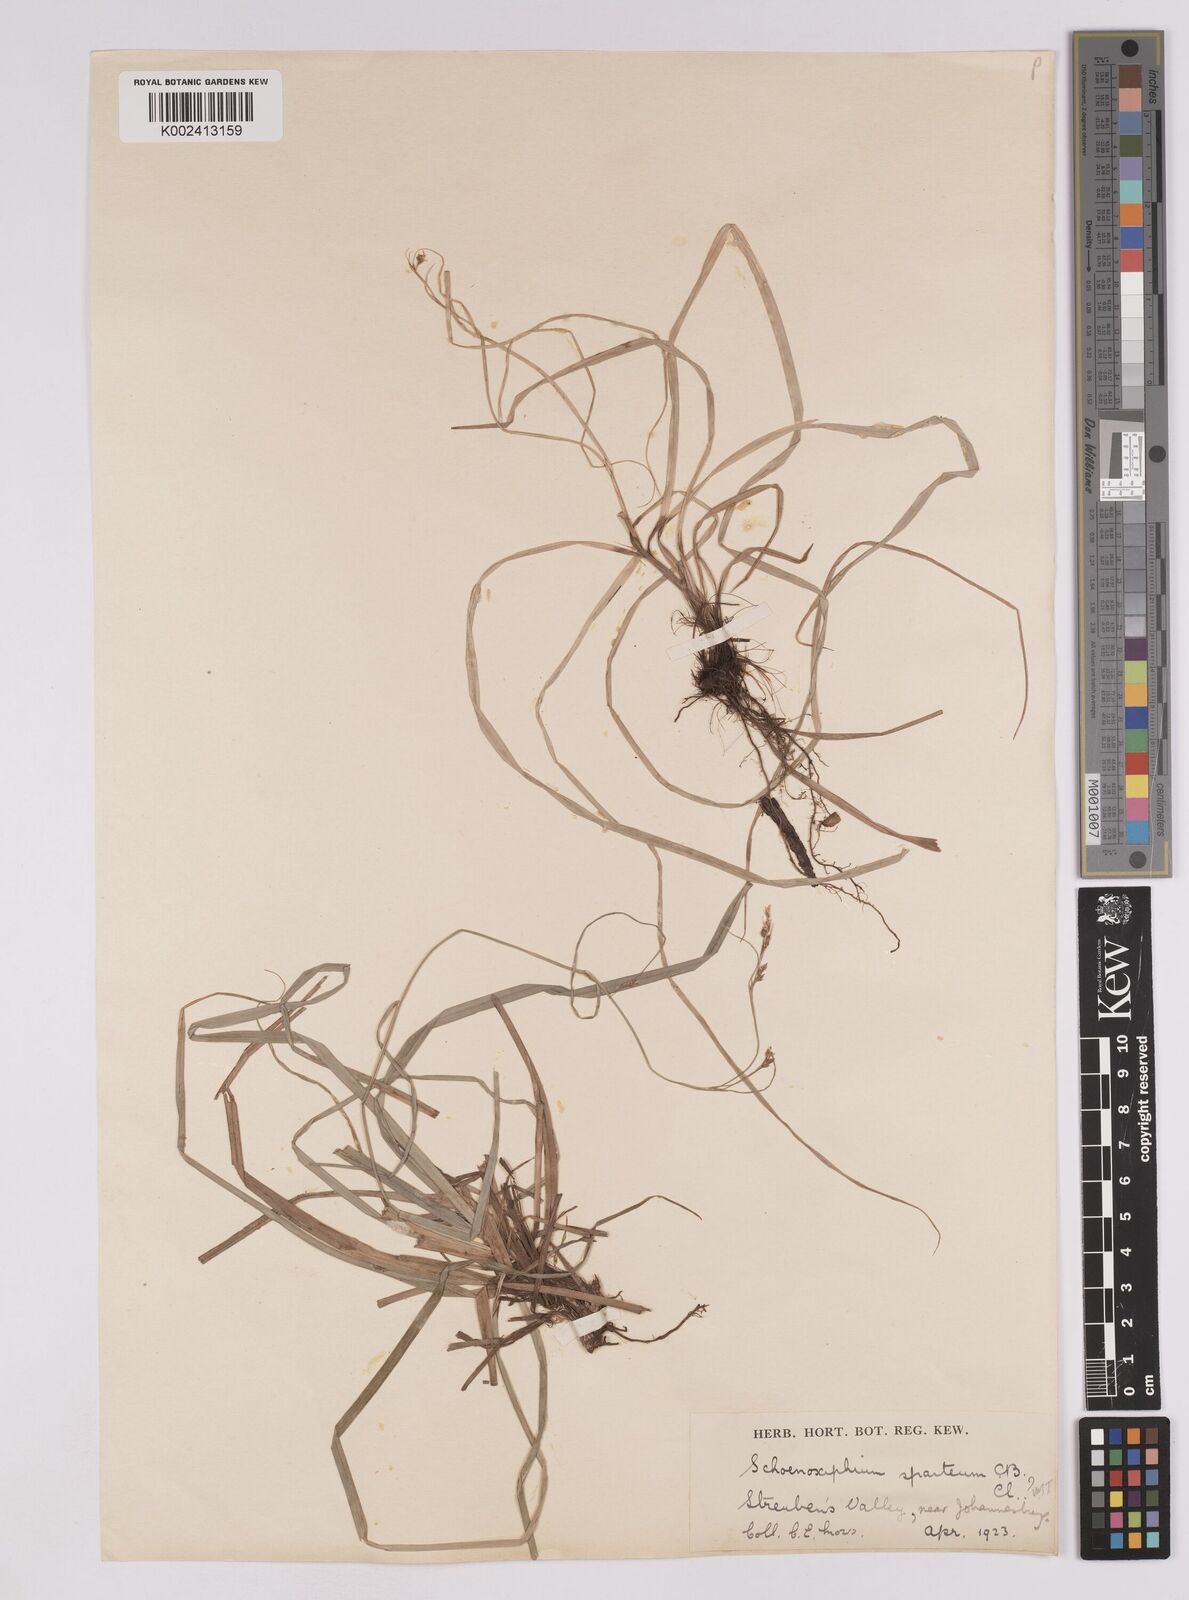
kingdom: Plantae
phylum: Tracheophyta
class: Liliopsida
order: Poales
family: Cyperaceae
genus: Carex
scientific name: Carex spartea
